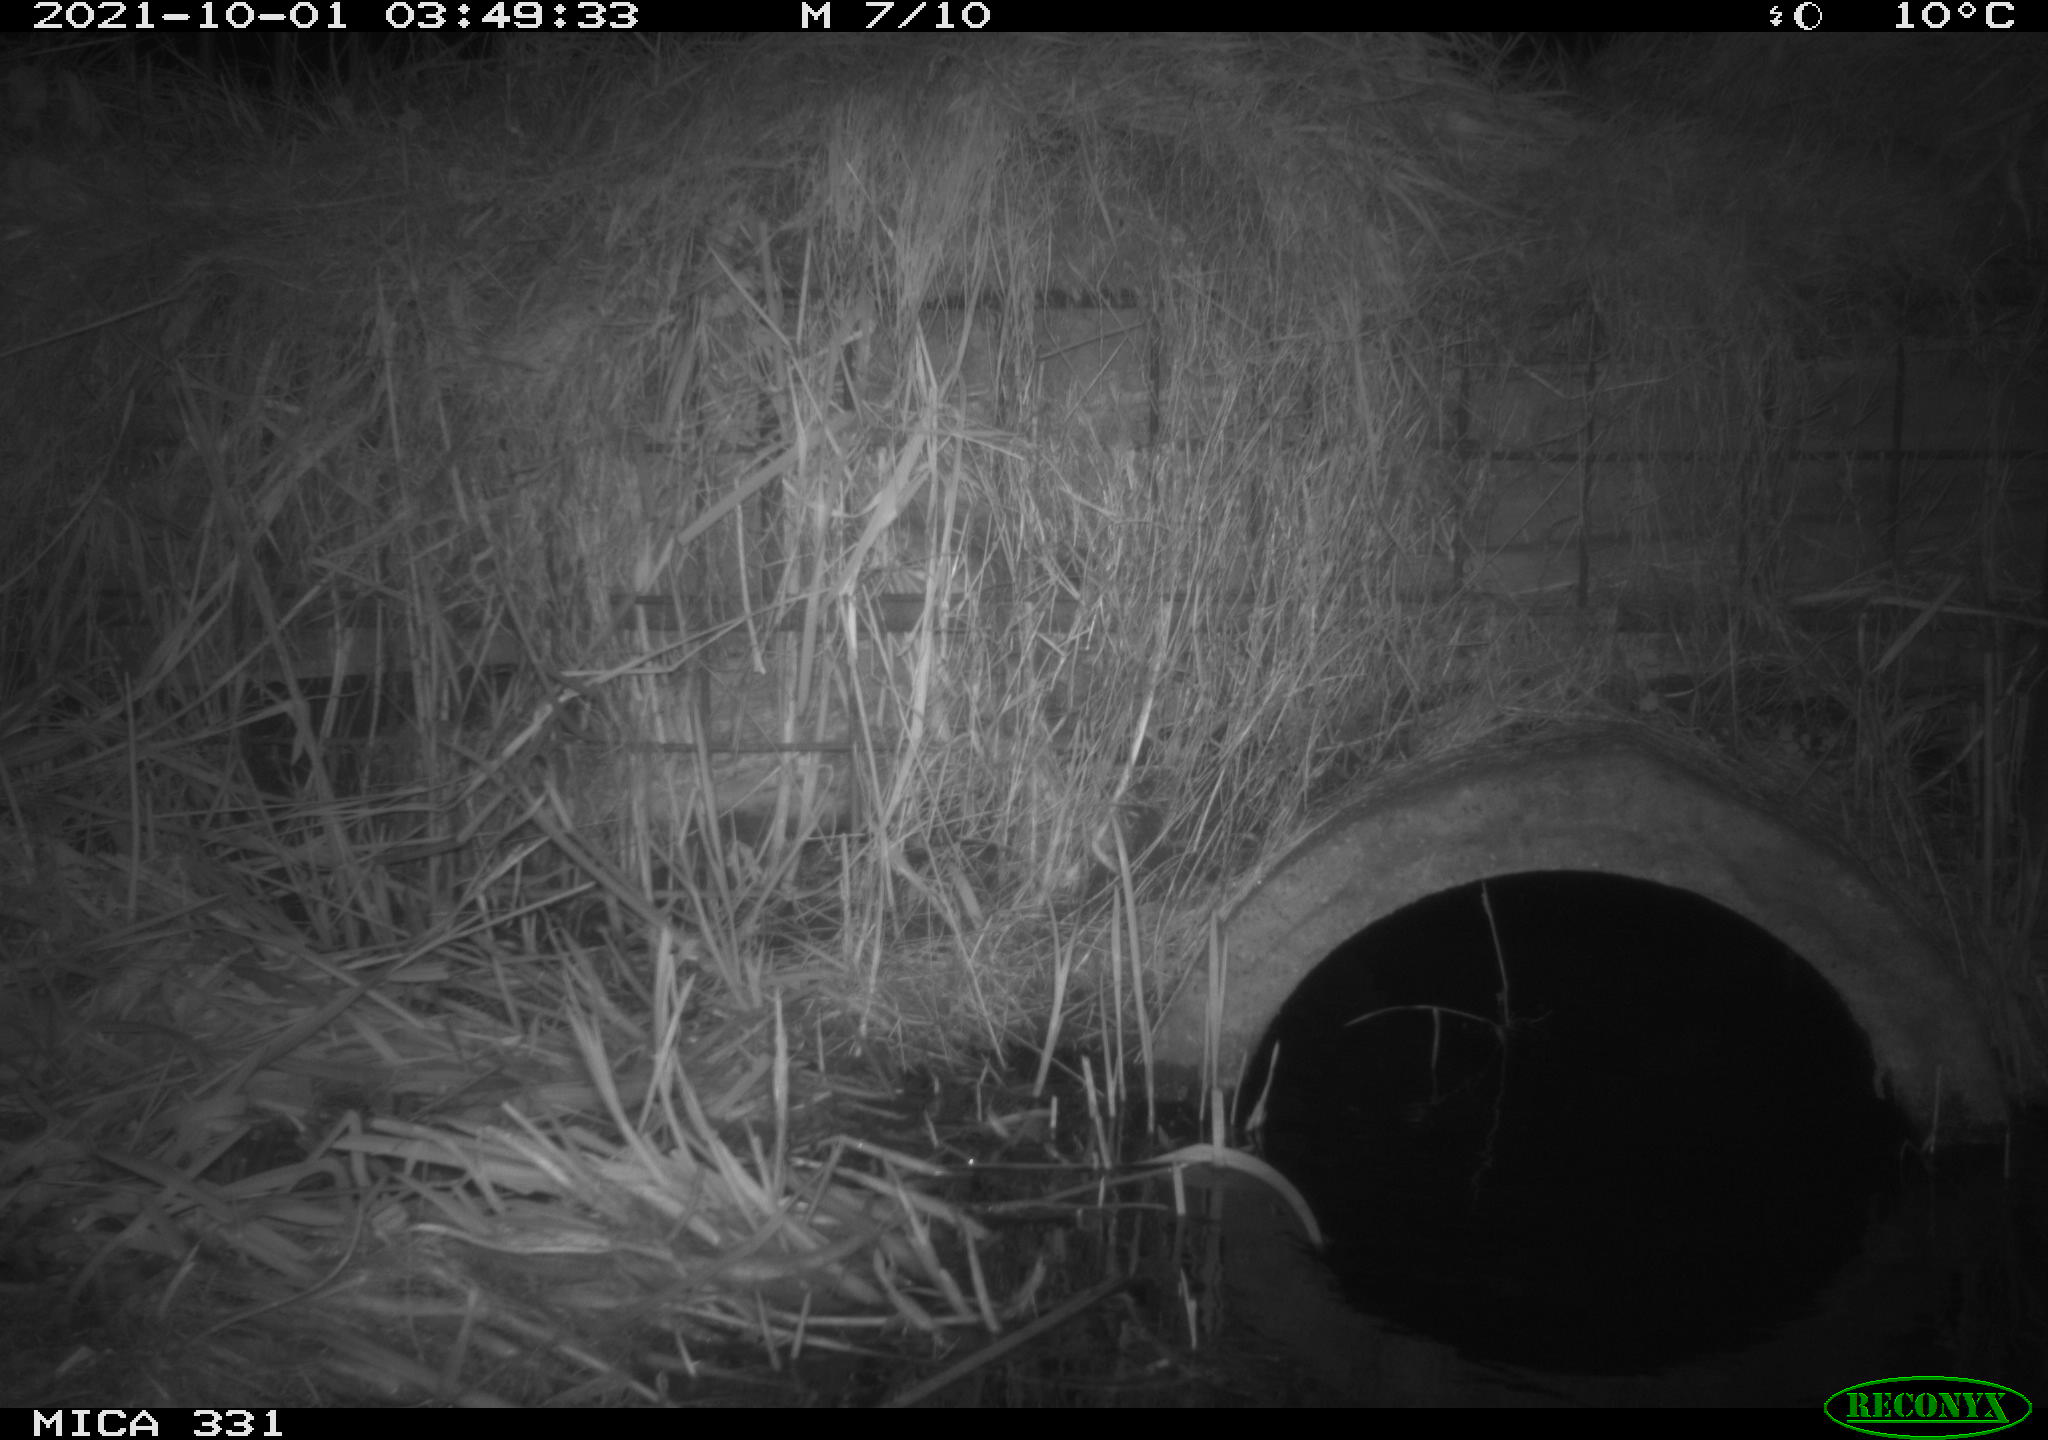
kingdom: Animalia
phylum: Chordata
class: Mammalia
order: Rodentia
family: Muridae
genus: Rattus
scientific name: Rattus norvegicus
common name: Brown rat
